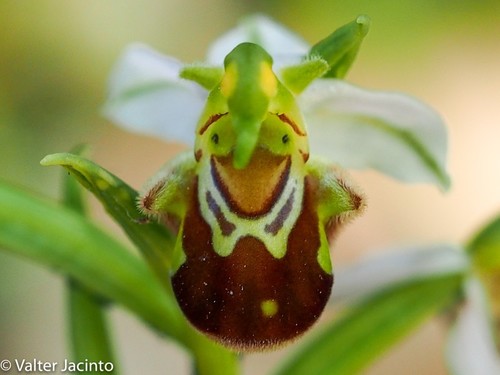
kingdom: Plantae
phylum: Tracheophyta
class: Liliopsida
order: Asparagales
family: Orchidaceae
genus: Ophrys
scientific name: Ophrys apifera
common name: Bee orchid
